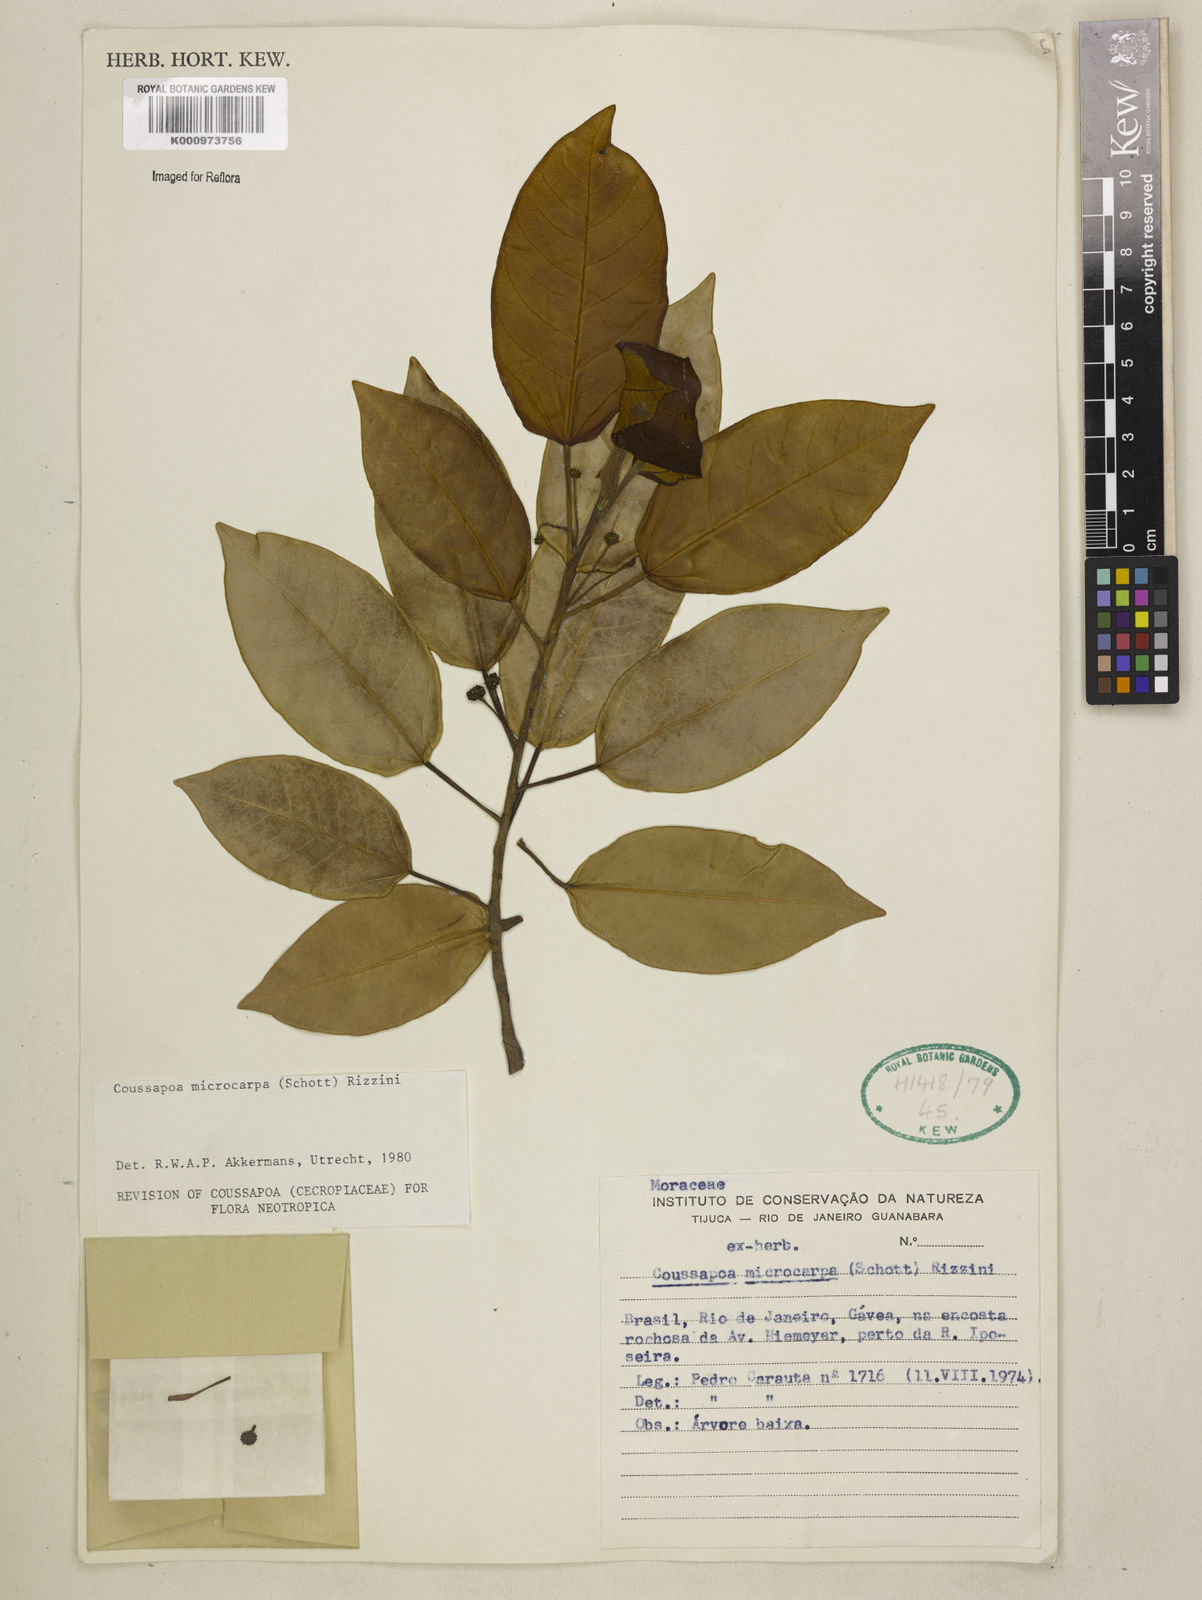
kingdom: Plantae
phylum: Tracheophyta
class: Magnoliopsida
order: Rosales
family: Urticaceae
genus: Coussapoa
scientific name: Coussapoa microcarpa
